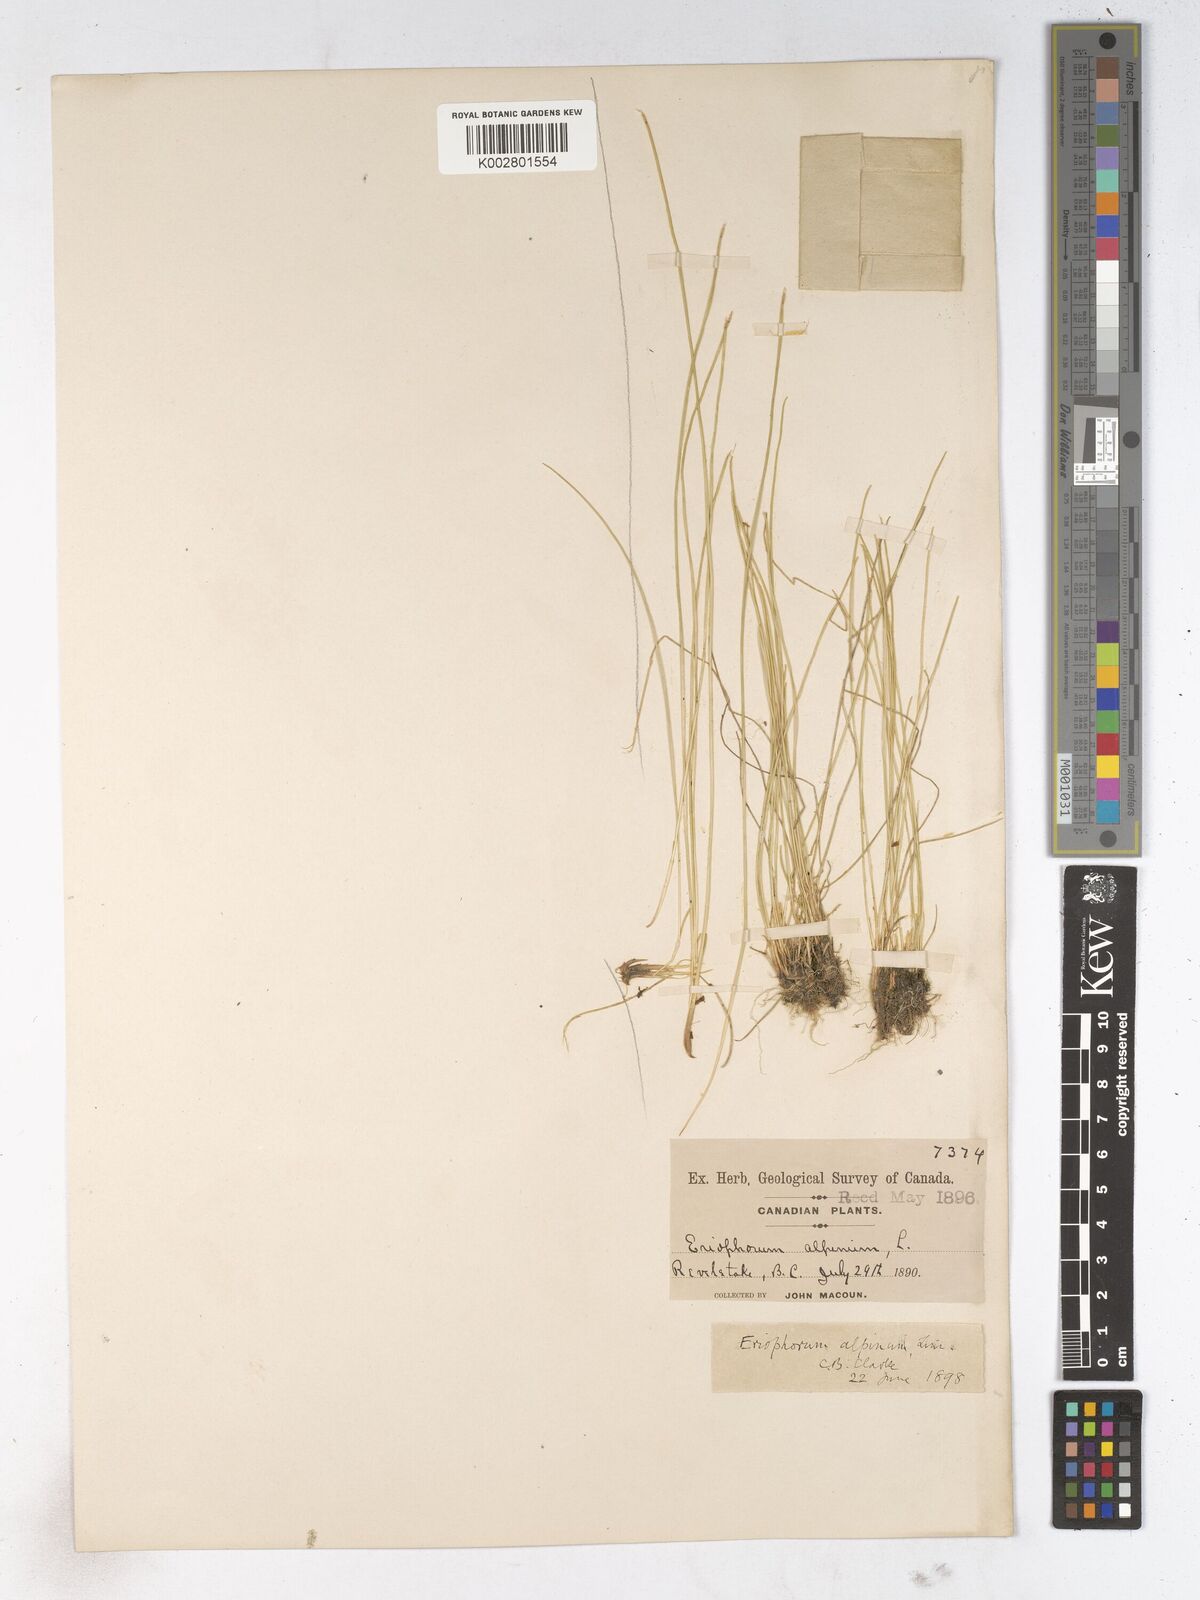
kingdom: Plantae
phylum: Tracheophyta
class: Liliopsida
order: Poales
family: Cyperaceae
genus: Trichophorum
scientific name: Trichophorum alpinum
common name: Alpine bulrush
